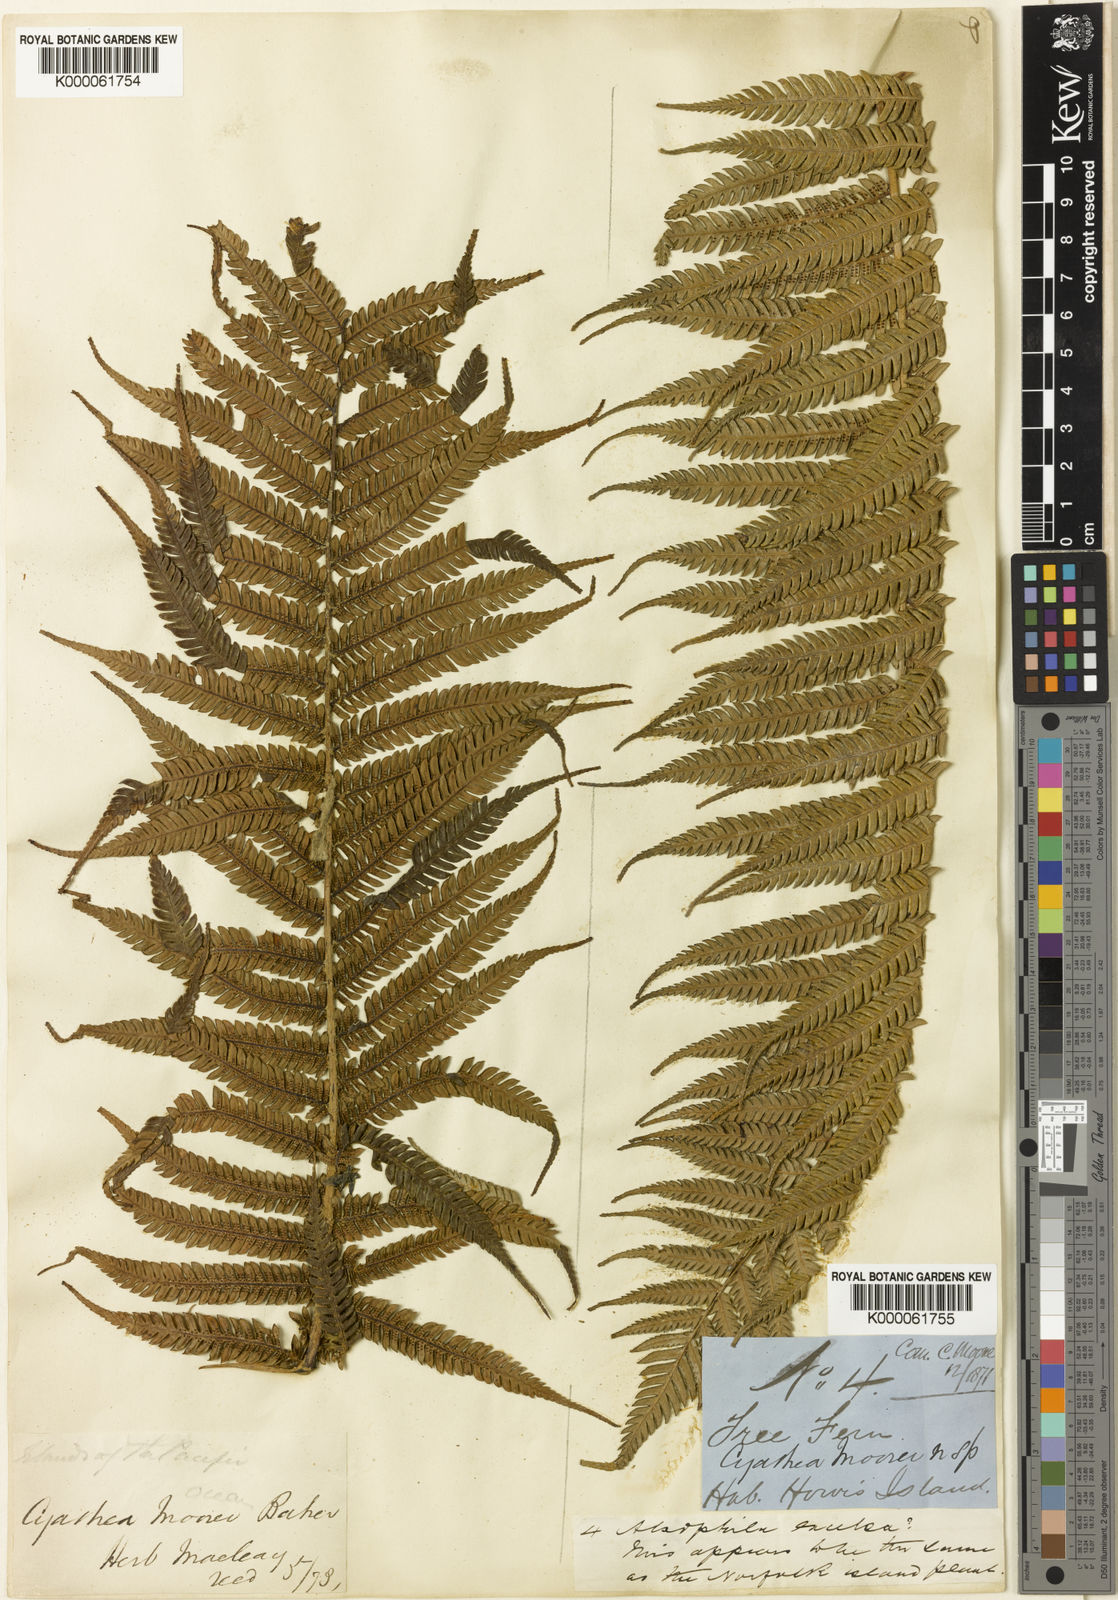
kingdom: Plantae
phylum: Tracheophyta
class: Polypodiopsida
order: Cyatheales
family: Cyatheaceae
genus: Alsophila
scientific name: Alsophila ferdinandii
